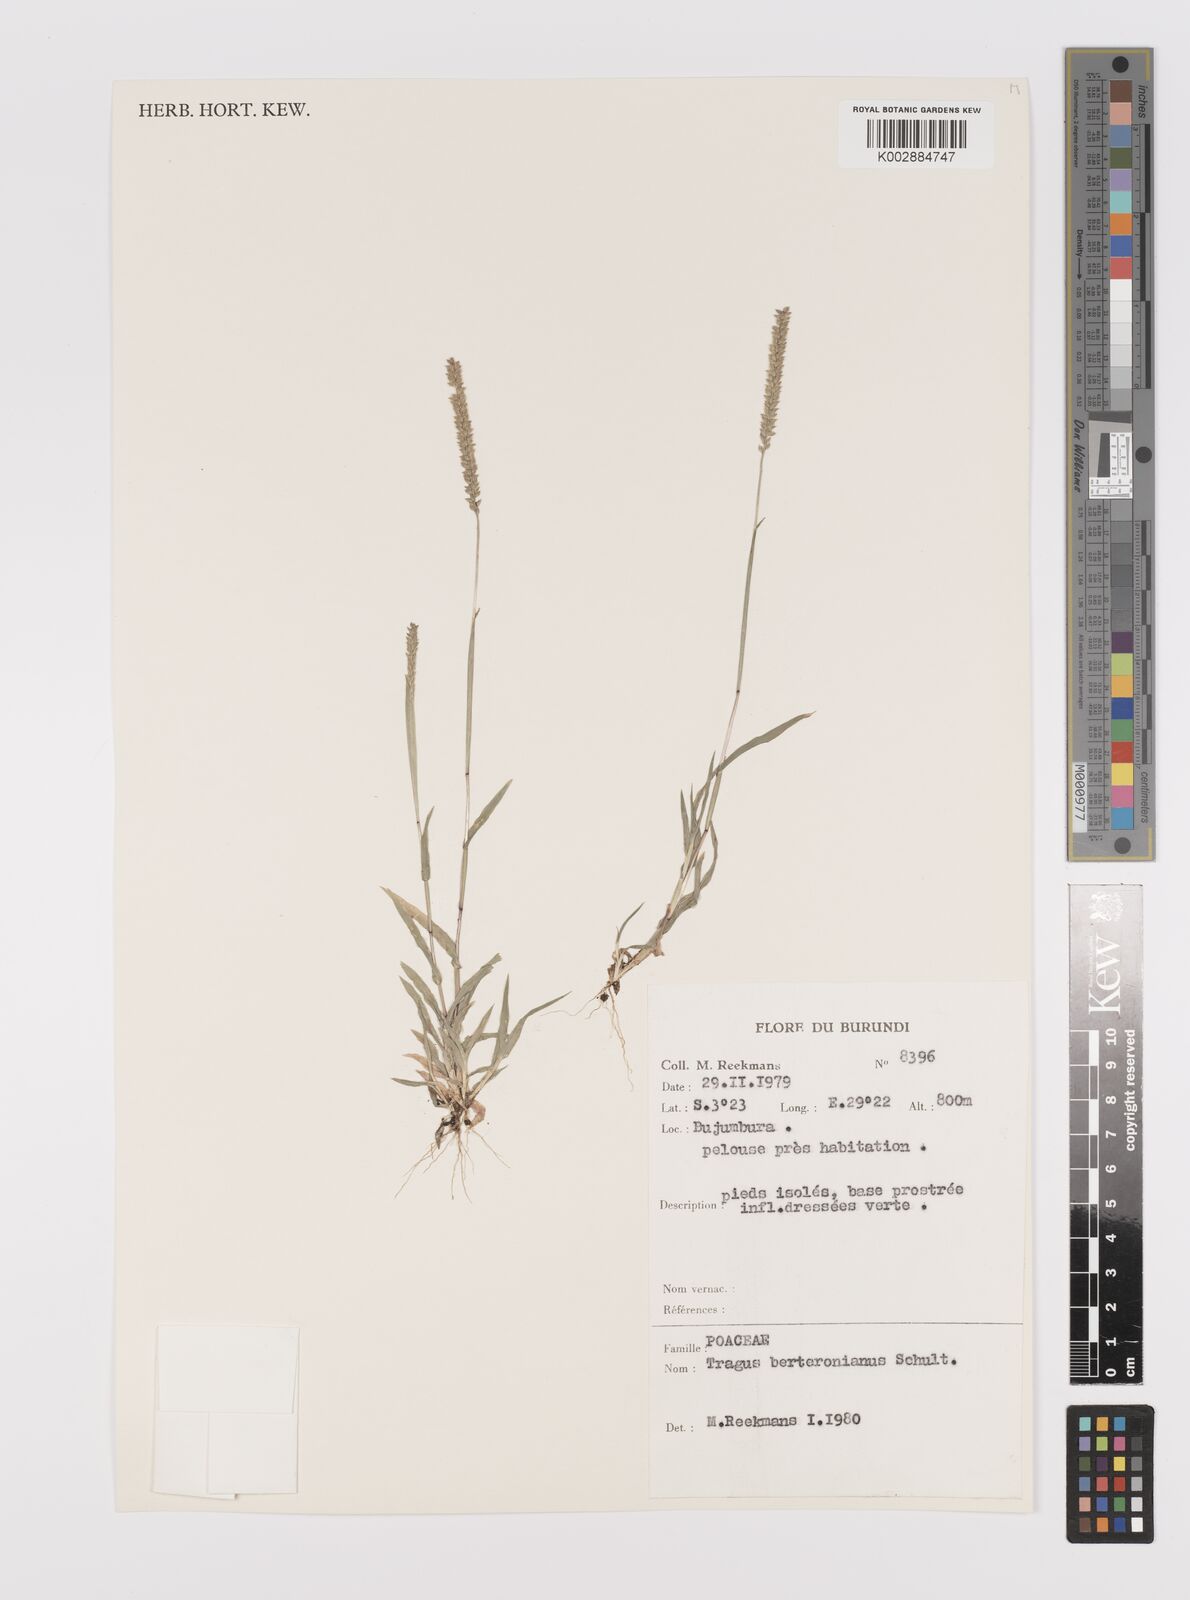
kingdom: Plantae
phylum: Tracheophyta
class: Liliopsida
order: Poales
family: Poaceae
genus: Tragus
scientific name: Tragus berteronianus
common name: African bur-grass
